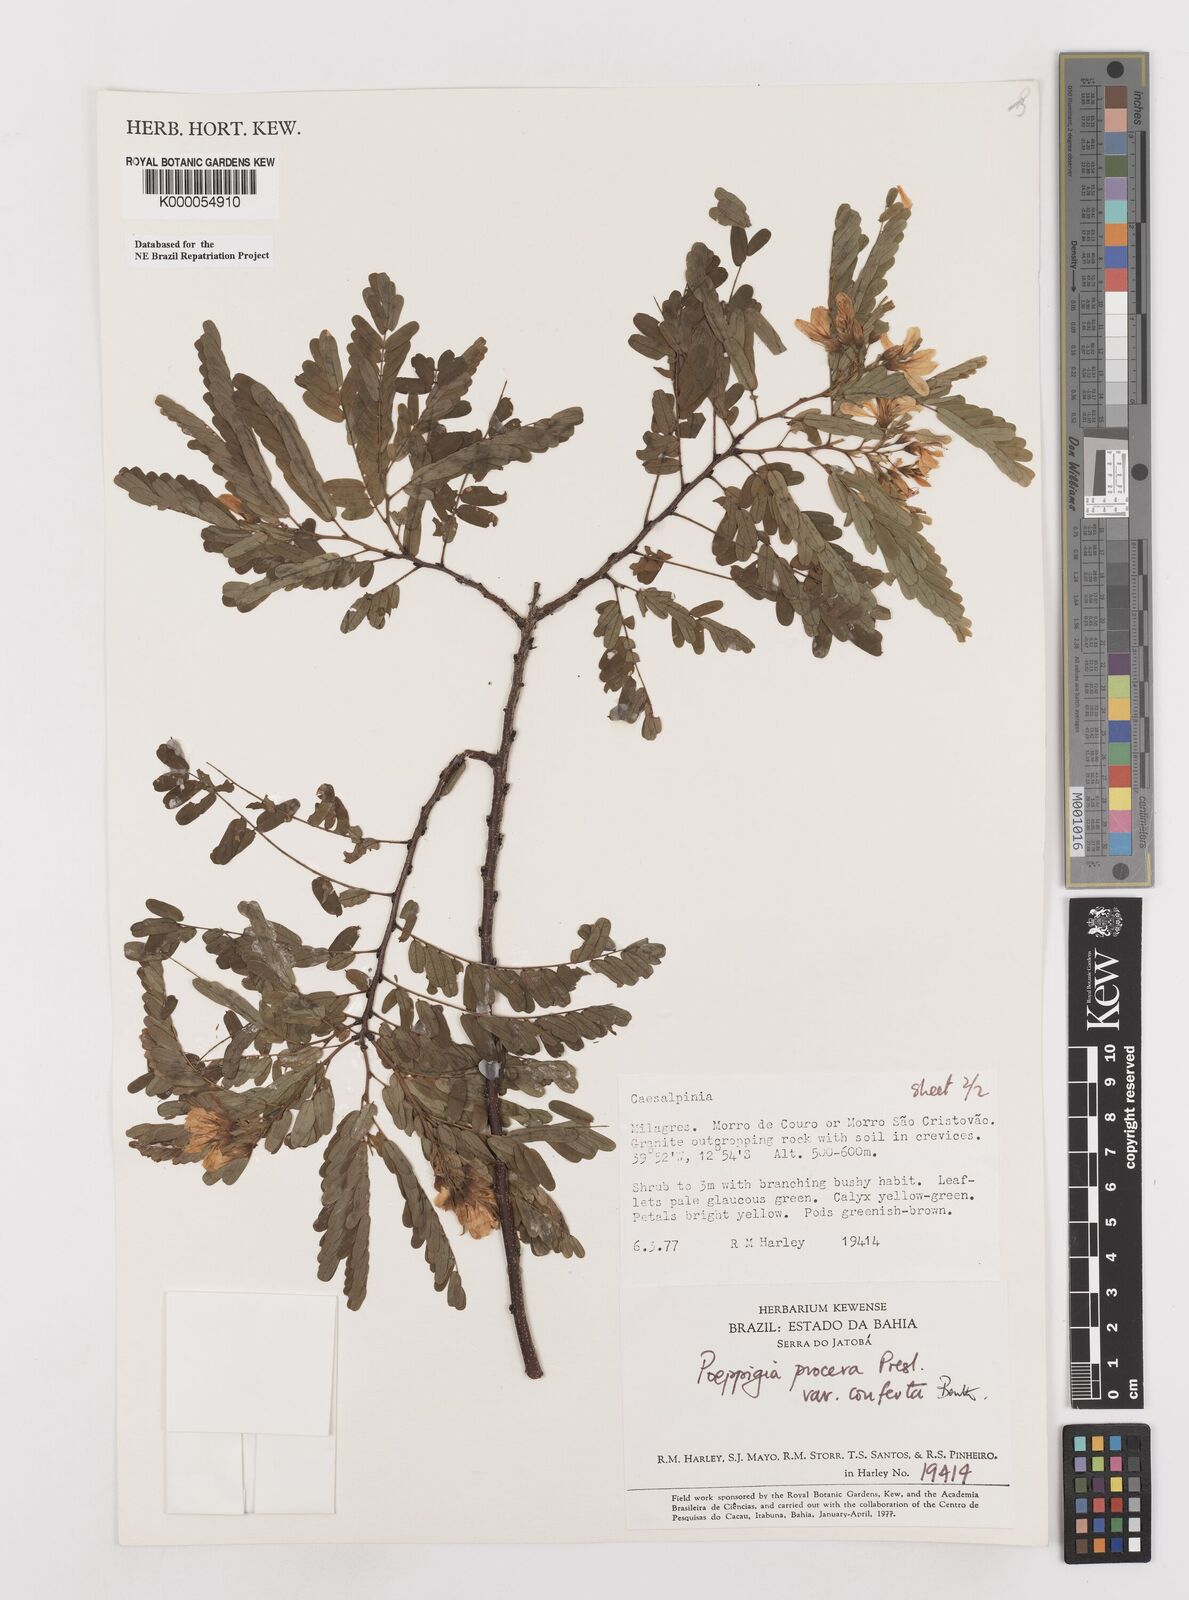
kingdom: Plantae
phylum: Tracheophyta
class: Magnoliopsida
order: Fabales
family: Fabaceae
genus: Poeppigia
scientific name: Poeppigia procera
